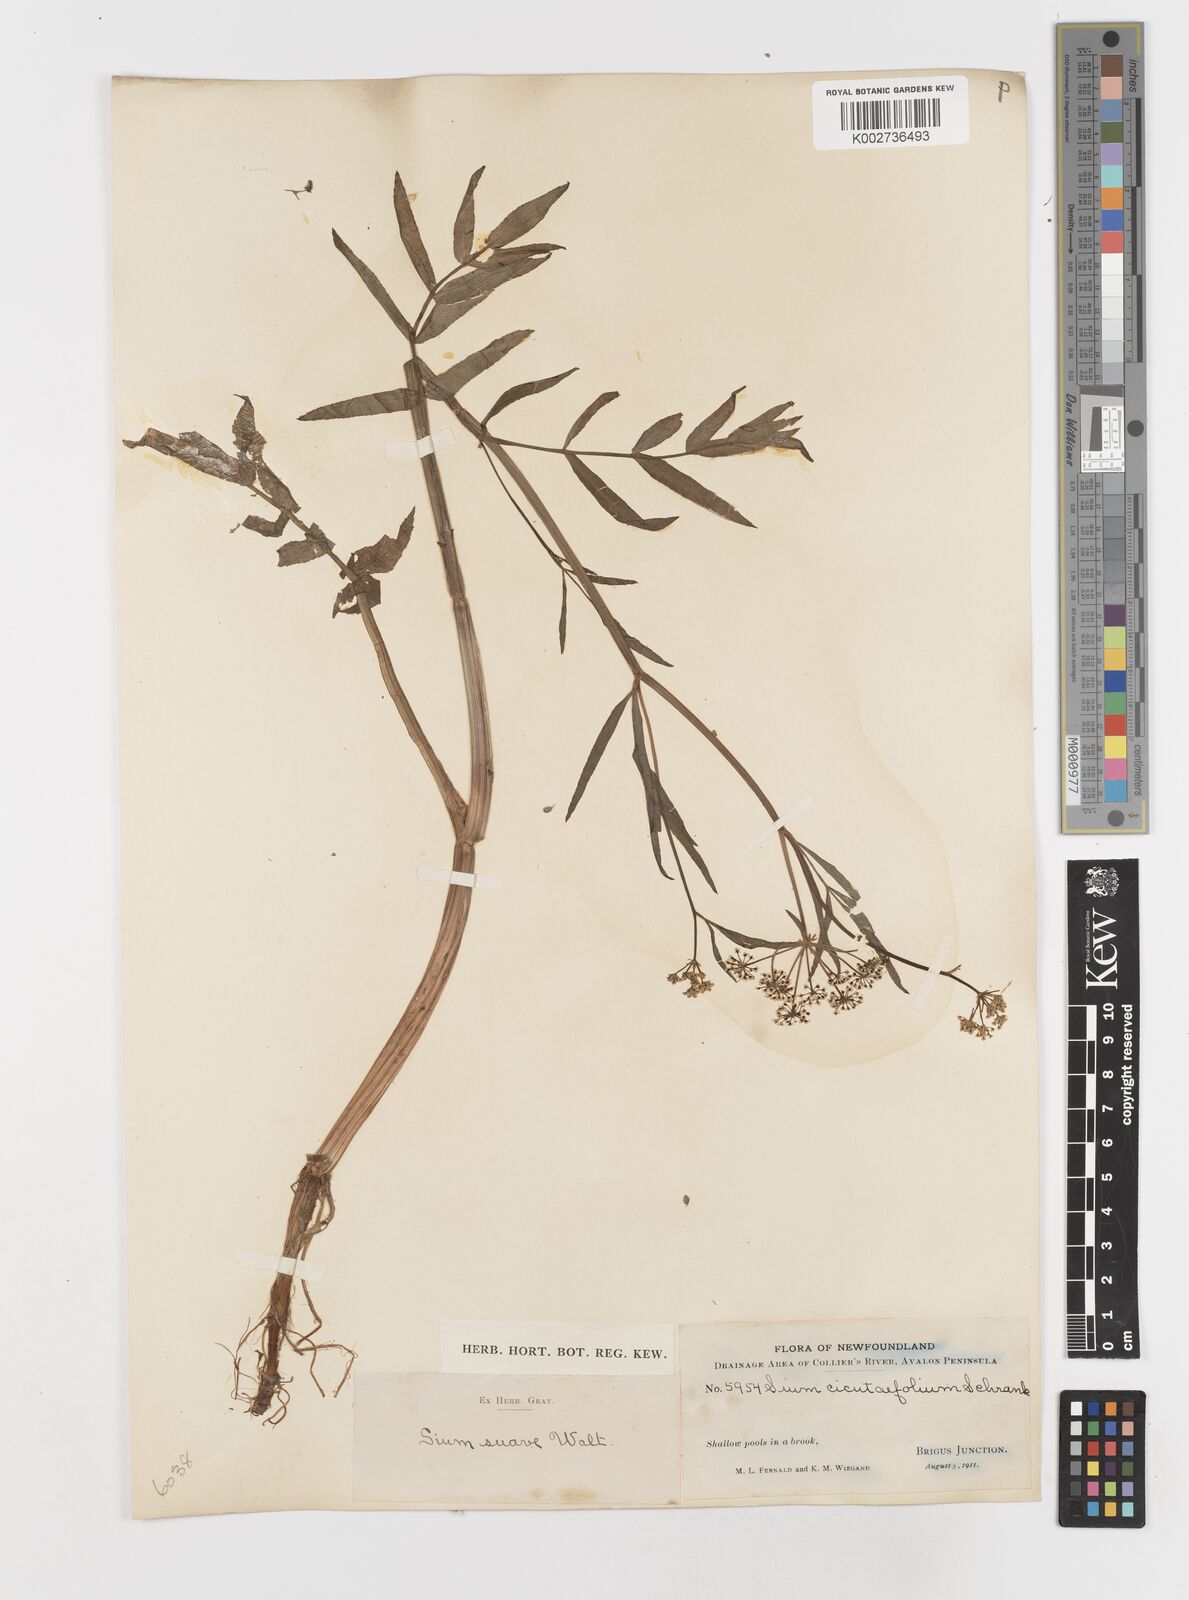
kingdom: Plantae
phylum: Tracheophyta
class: Magnoliopsida
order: Apiales
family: Apiaceae
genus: Sium
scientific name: Sium suave
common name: Hemlock water-parsnip
